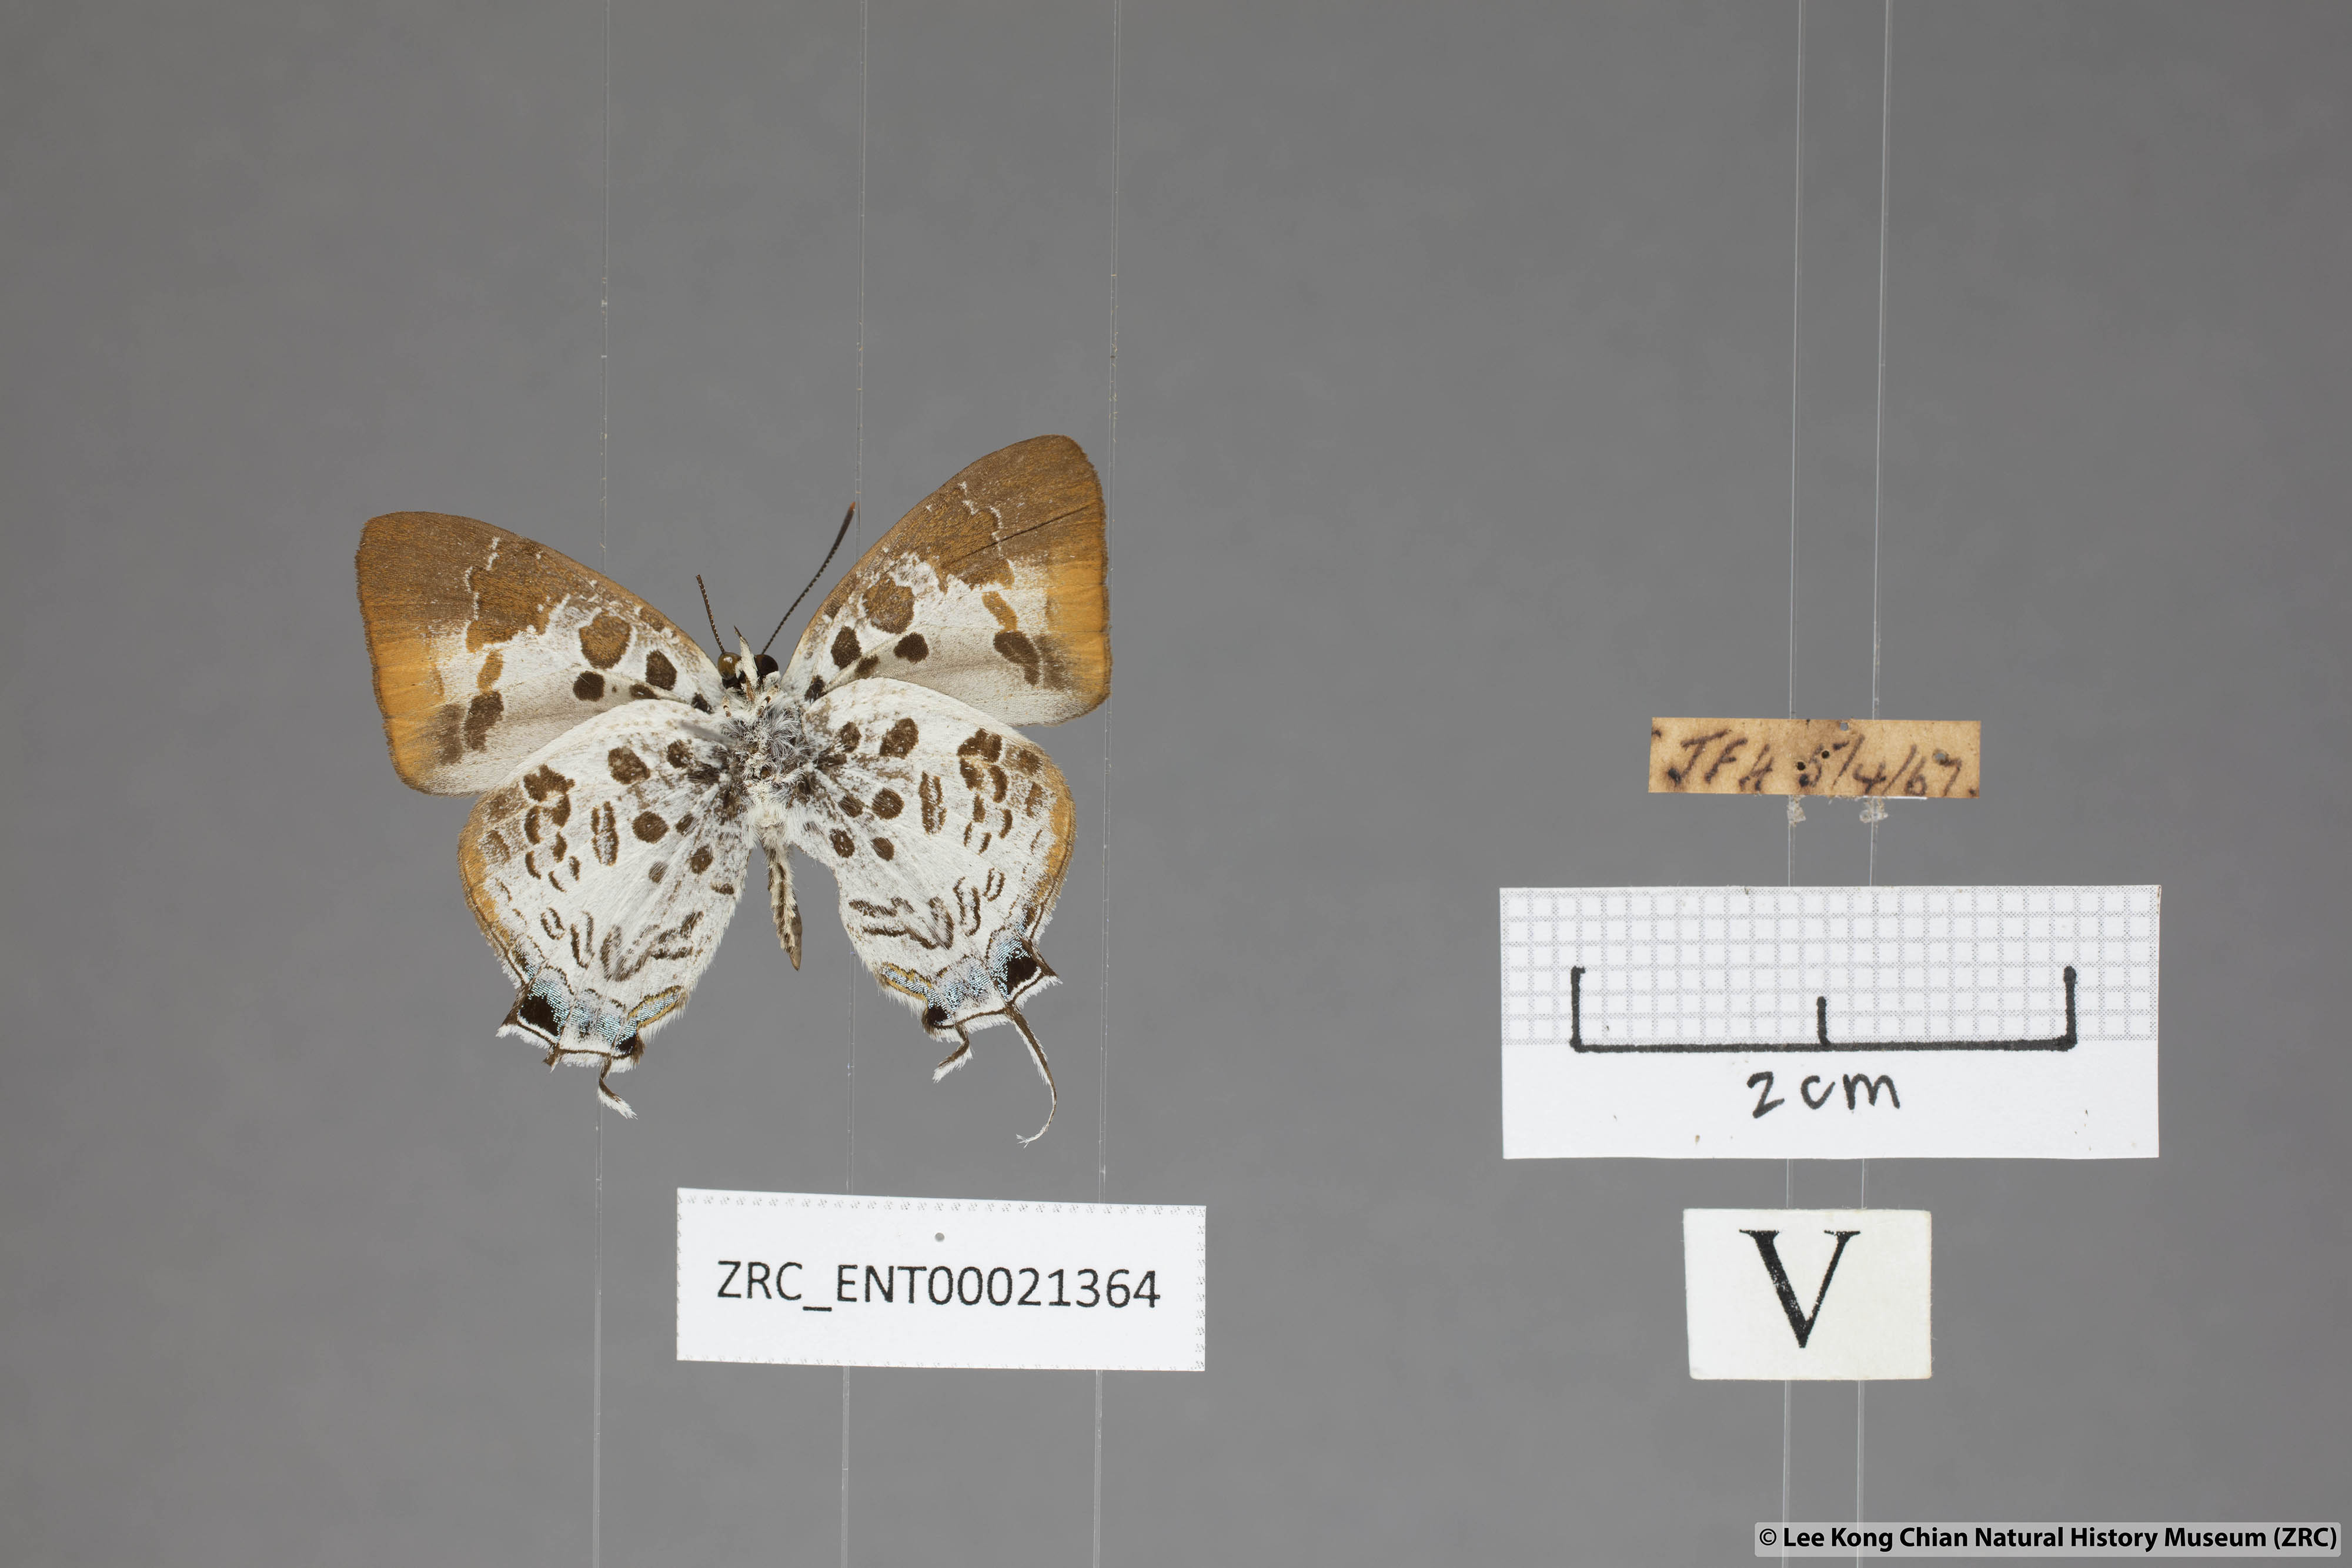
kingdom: Animalia
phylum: Arthropoda
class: Insecta
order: Lepidoptera
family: Lycaenidae
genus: Drupadia
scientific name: Drupadia estella
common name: White-craved posy
